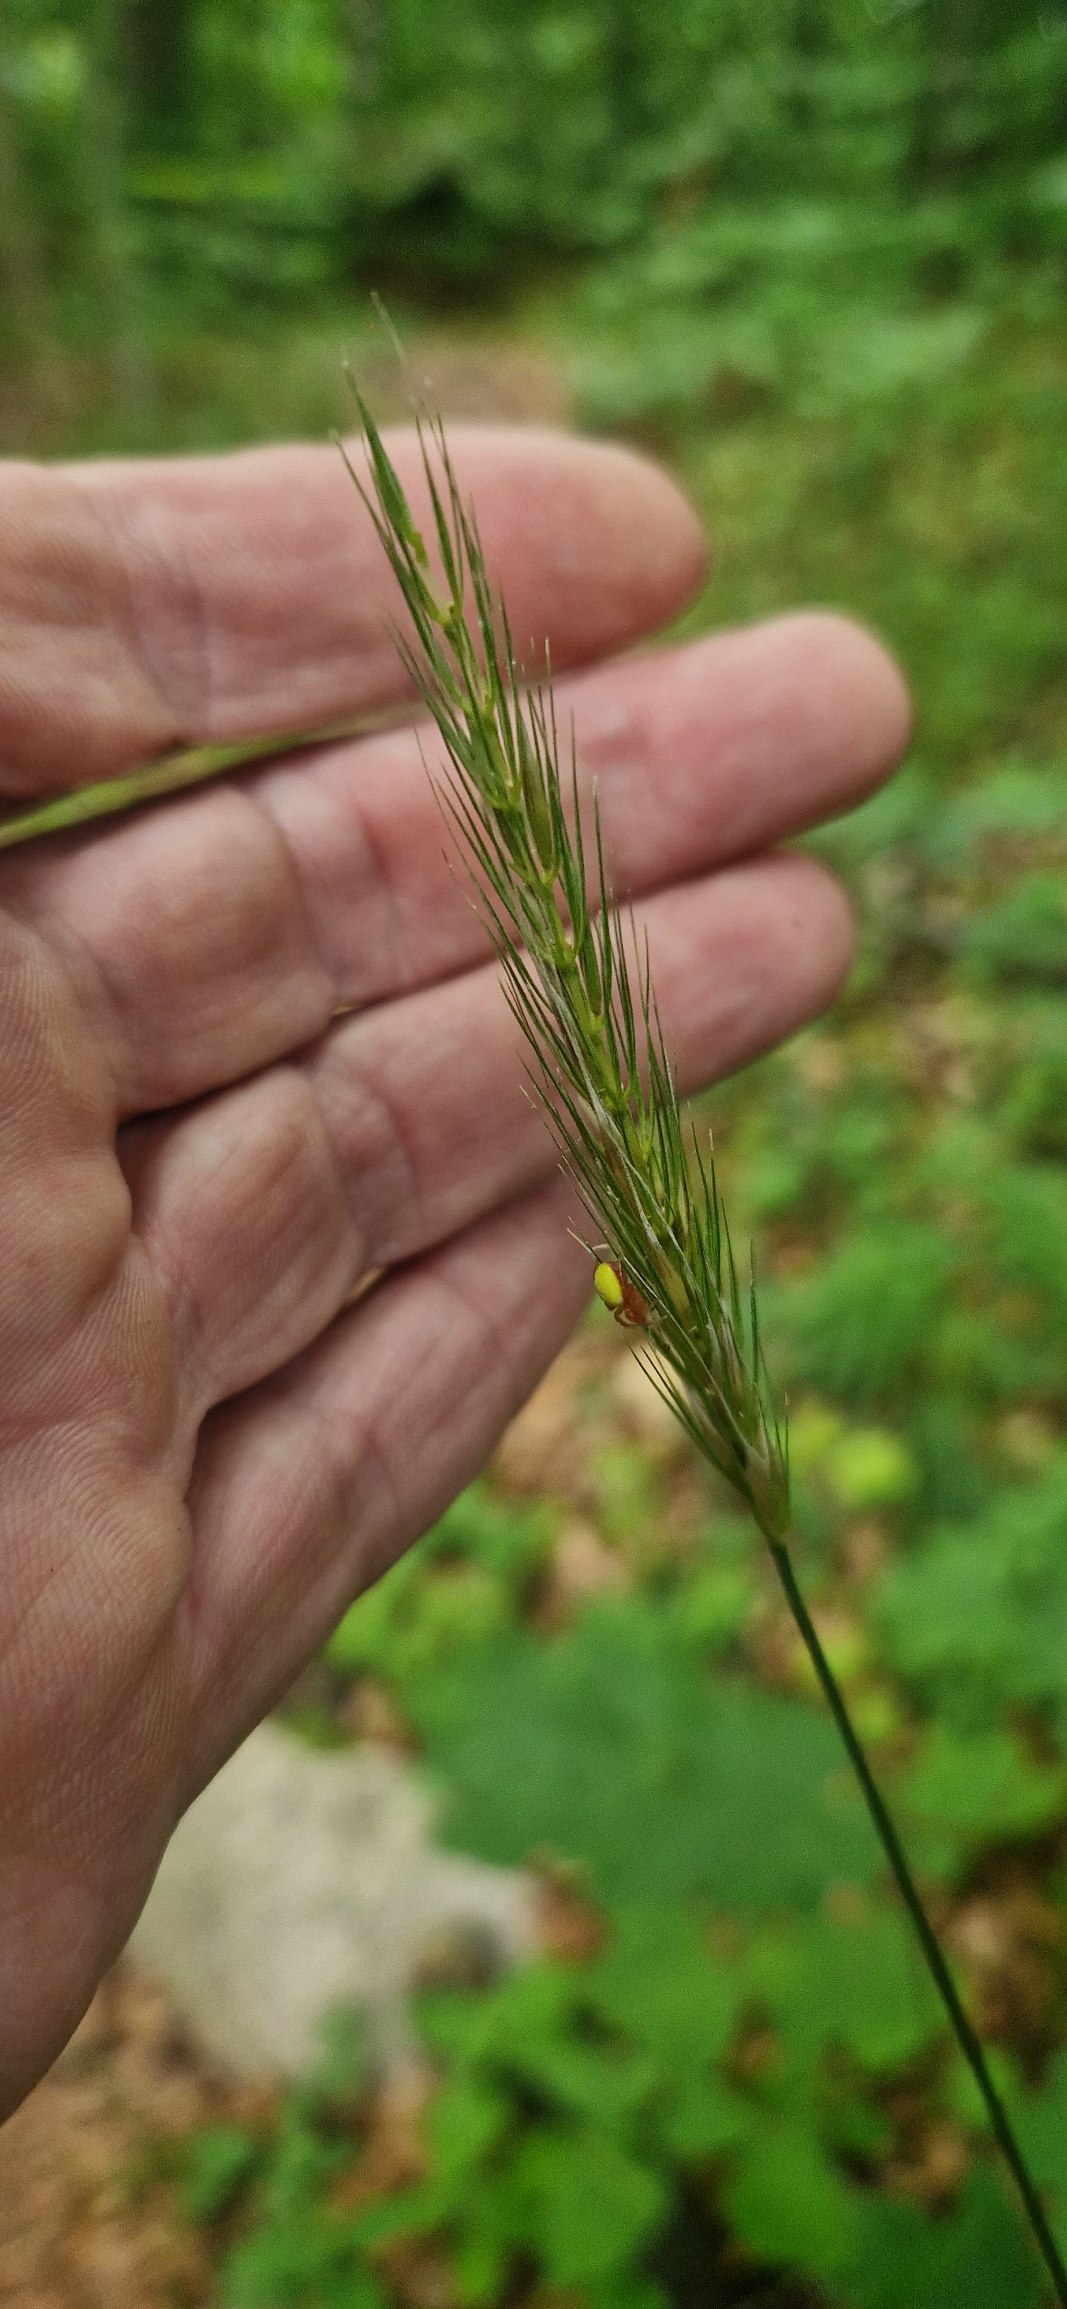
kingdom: Plantae
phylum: Tracheophyta
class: Liliopsida
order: Poales
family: Poaceae
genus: Hordelymus
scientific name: Hordelymus europaeus
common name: Skovbyg
